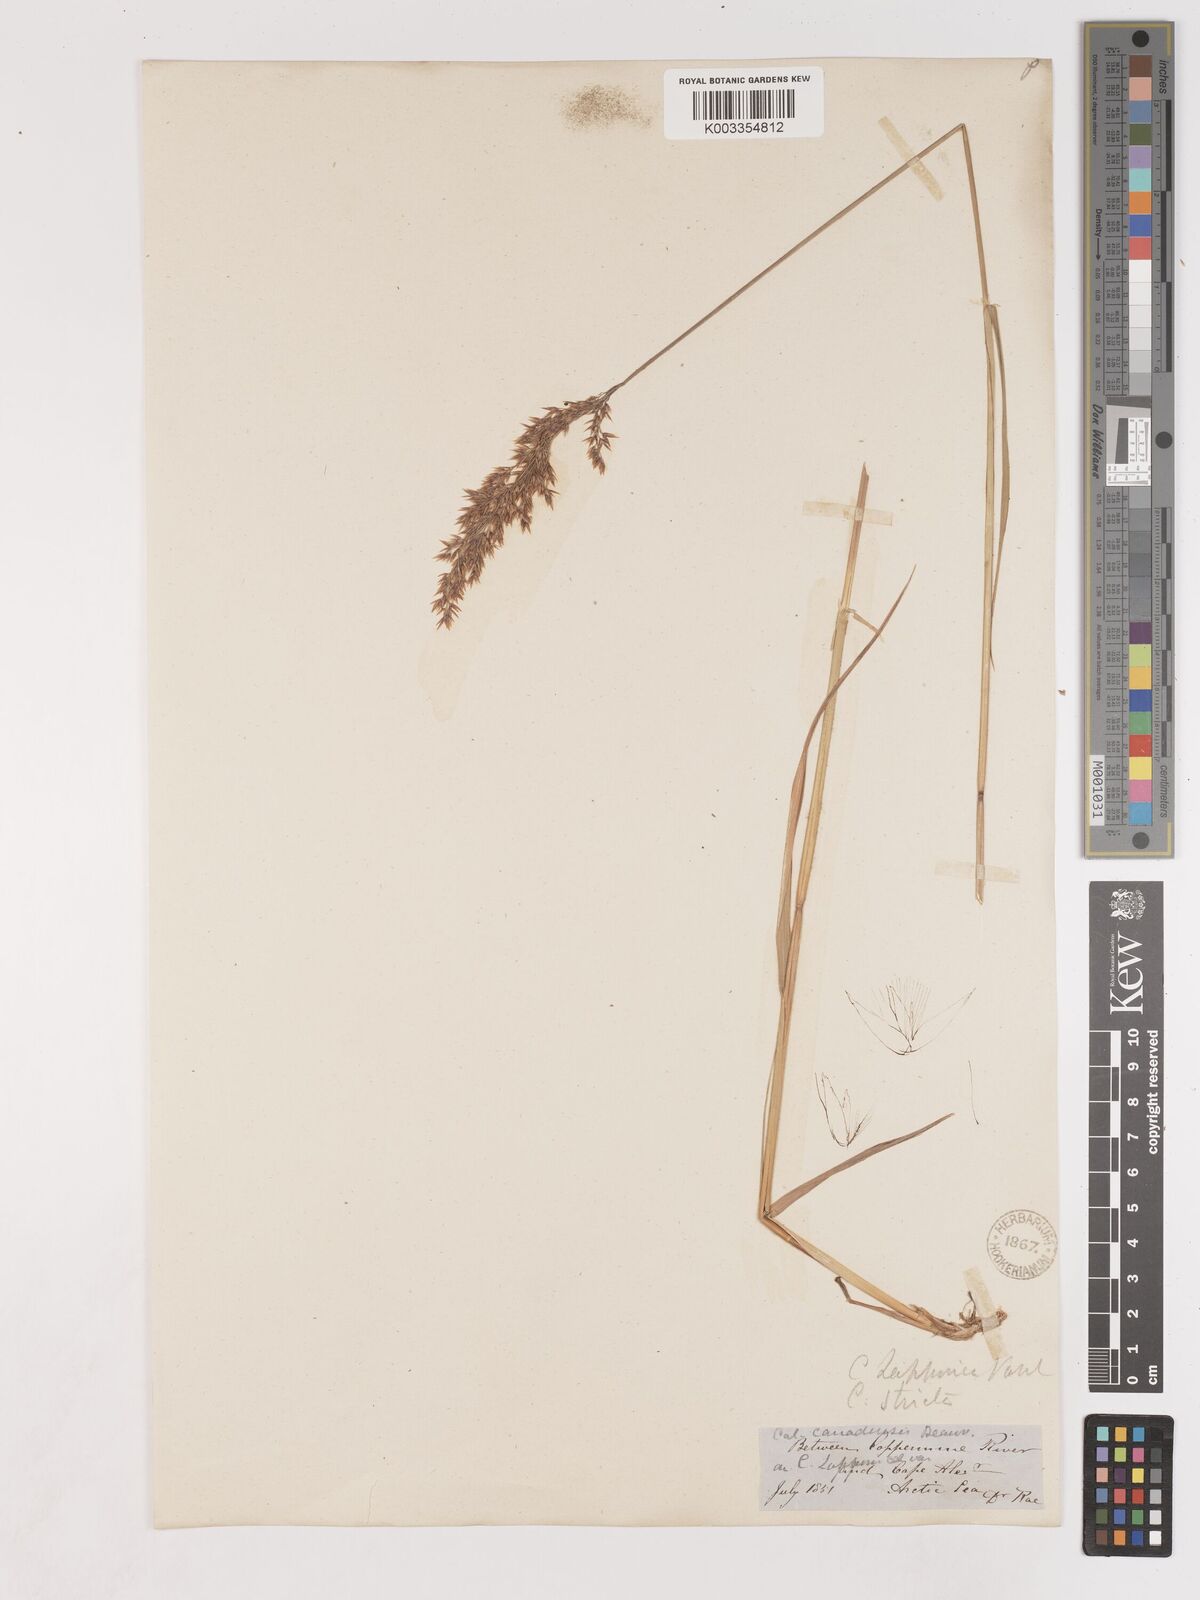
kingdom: Plantae
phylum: Tracheophyta
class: Liliopsida
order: Poales
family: Poaceae
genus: Calamagrostis
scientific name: Calamagrostis
